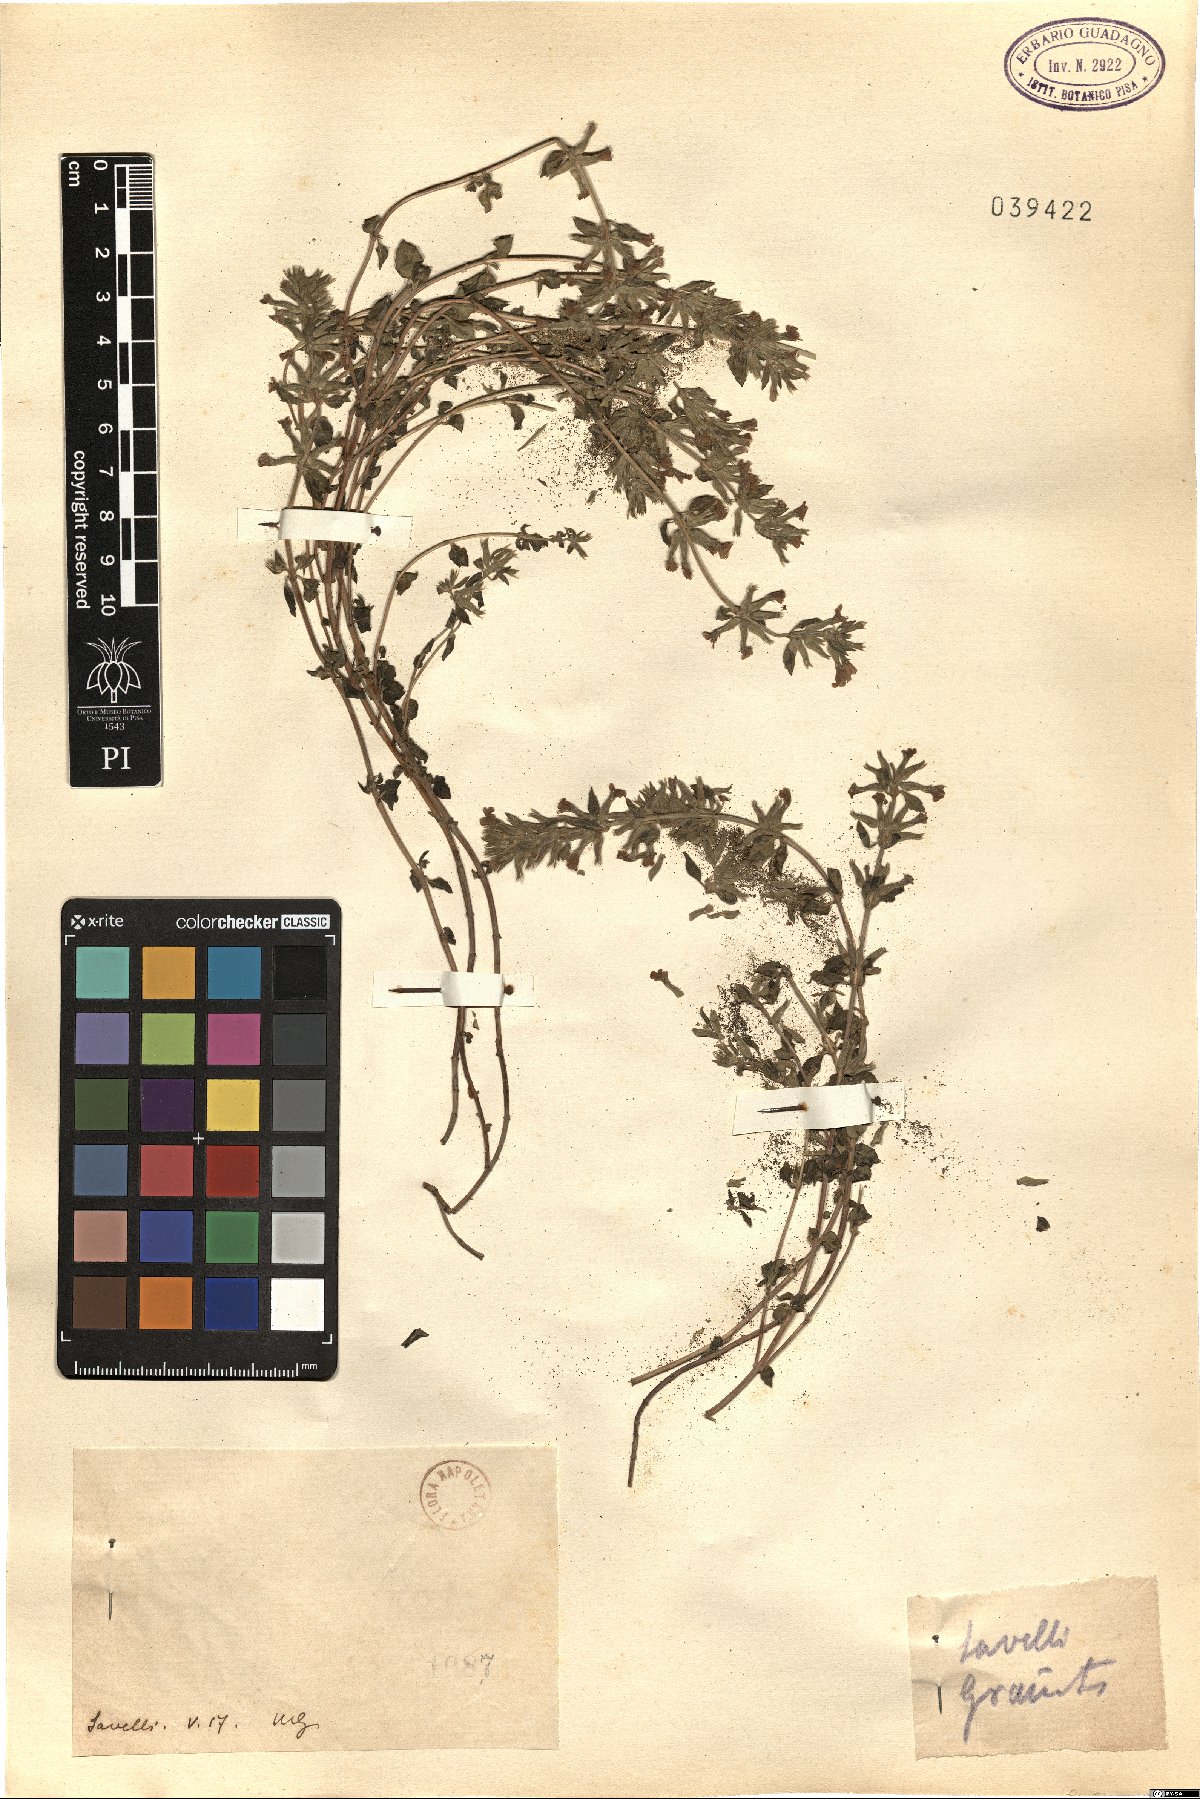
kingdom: Plantae
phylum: Tracheophyta
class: Magnoliopsida
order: Lamiales
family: Lamiaceae
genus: Calamintha
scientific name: Calamintha
